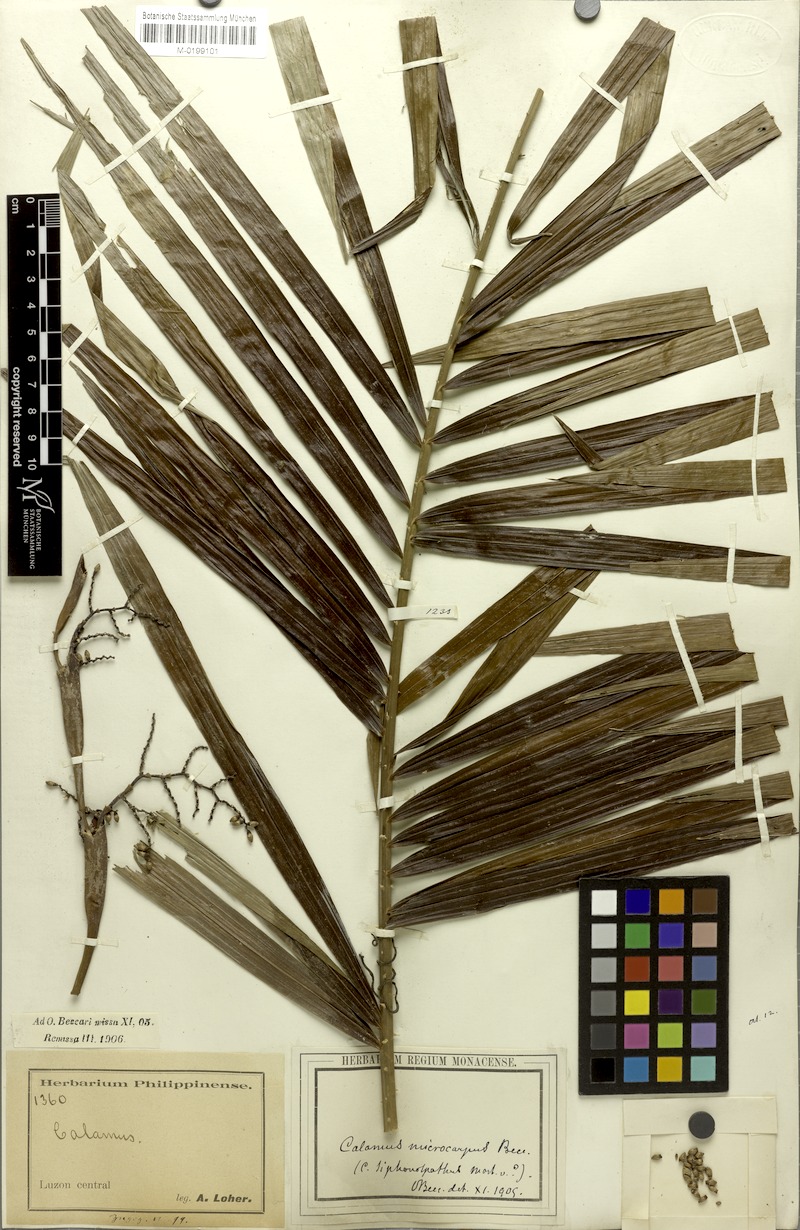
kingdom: Plantae
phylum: Tracheophyta
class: Liliopsida
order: Arecales
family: Arecaceae
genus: Calamus
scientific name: Calamus siphonospathus
